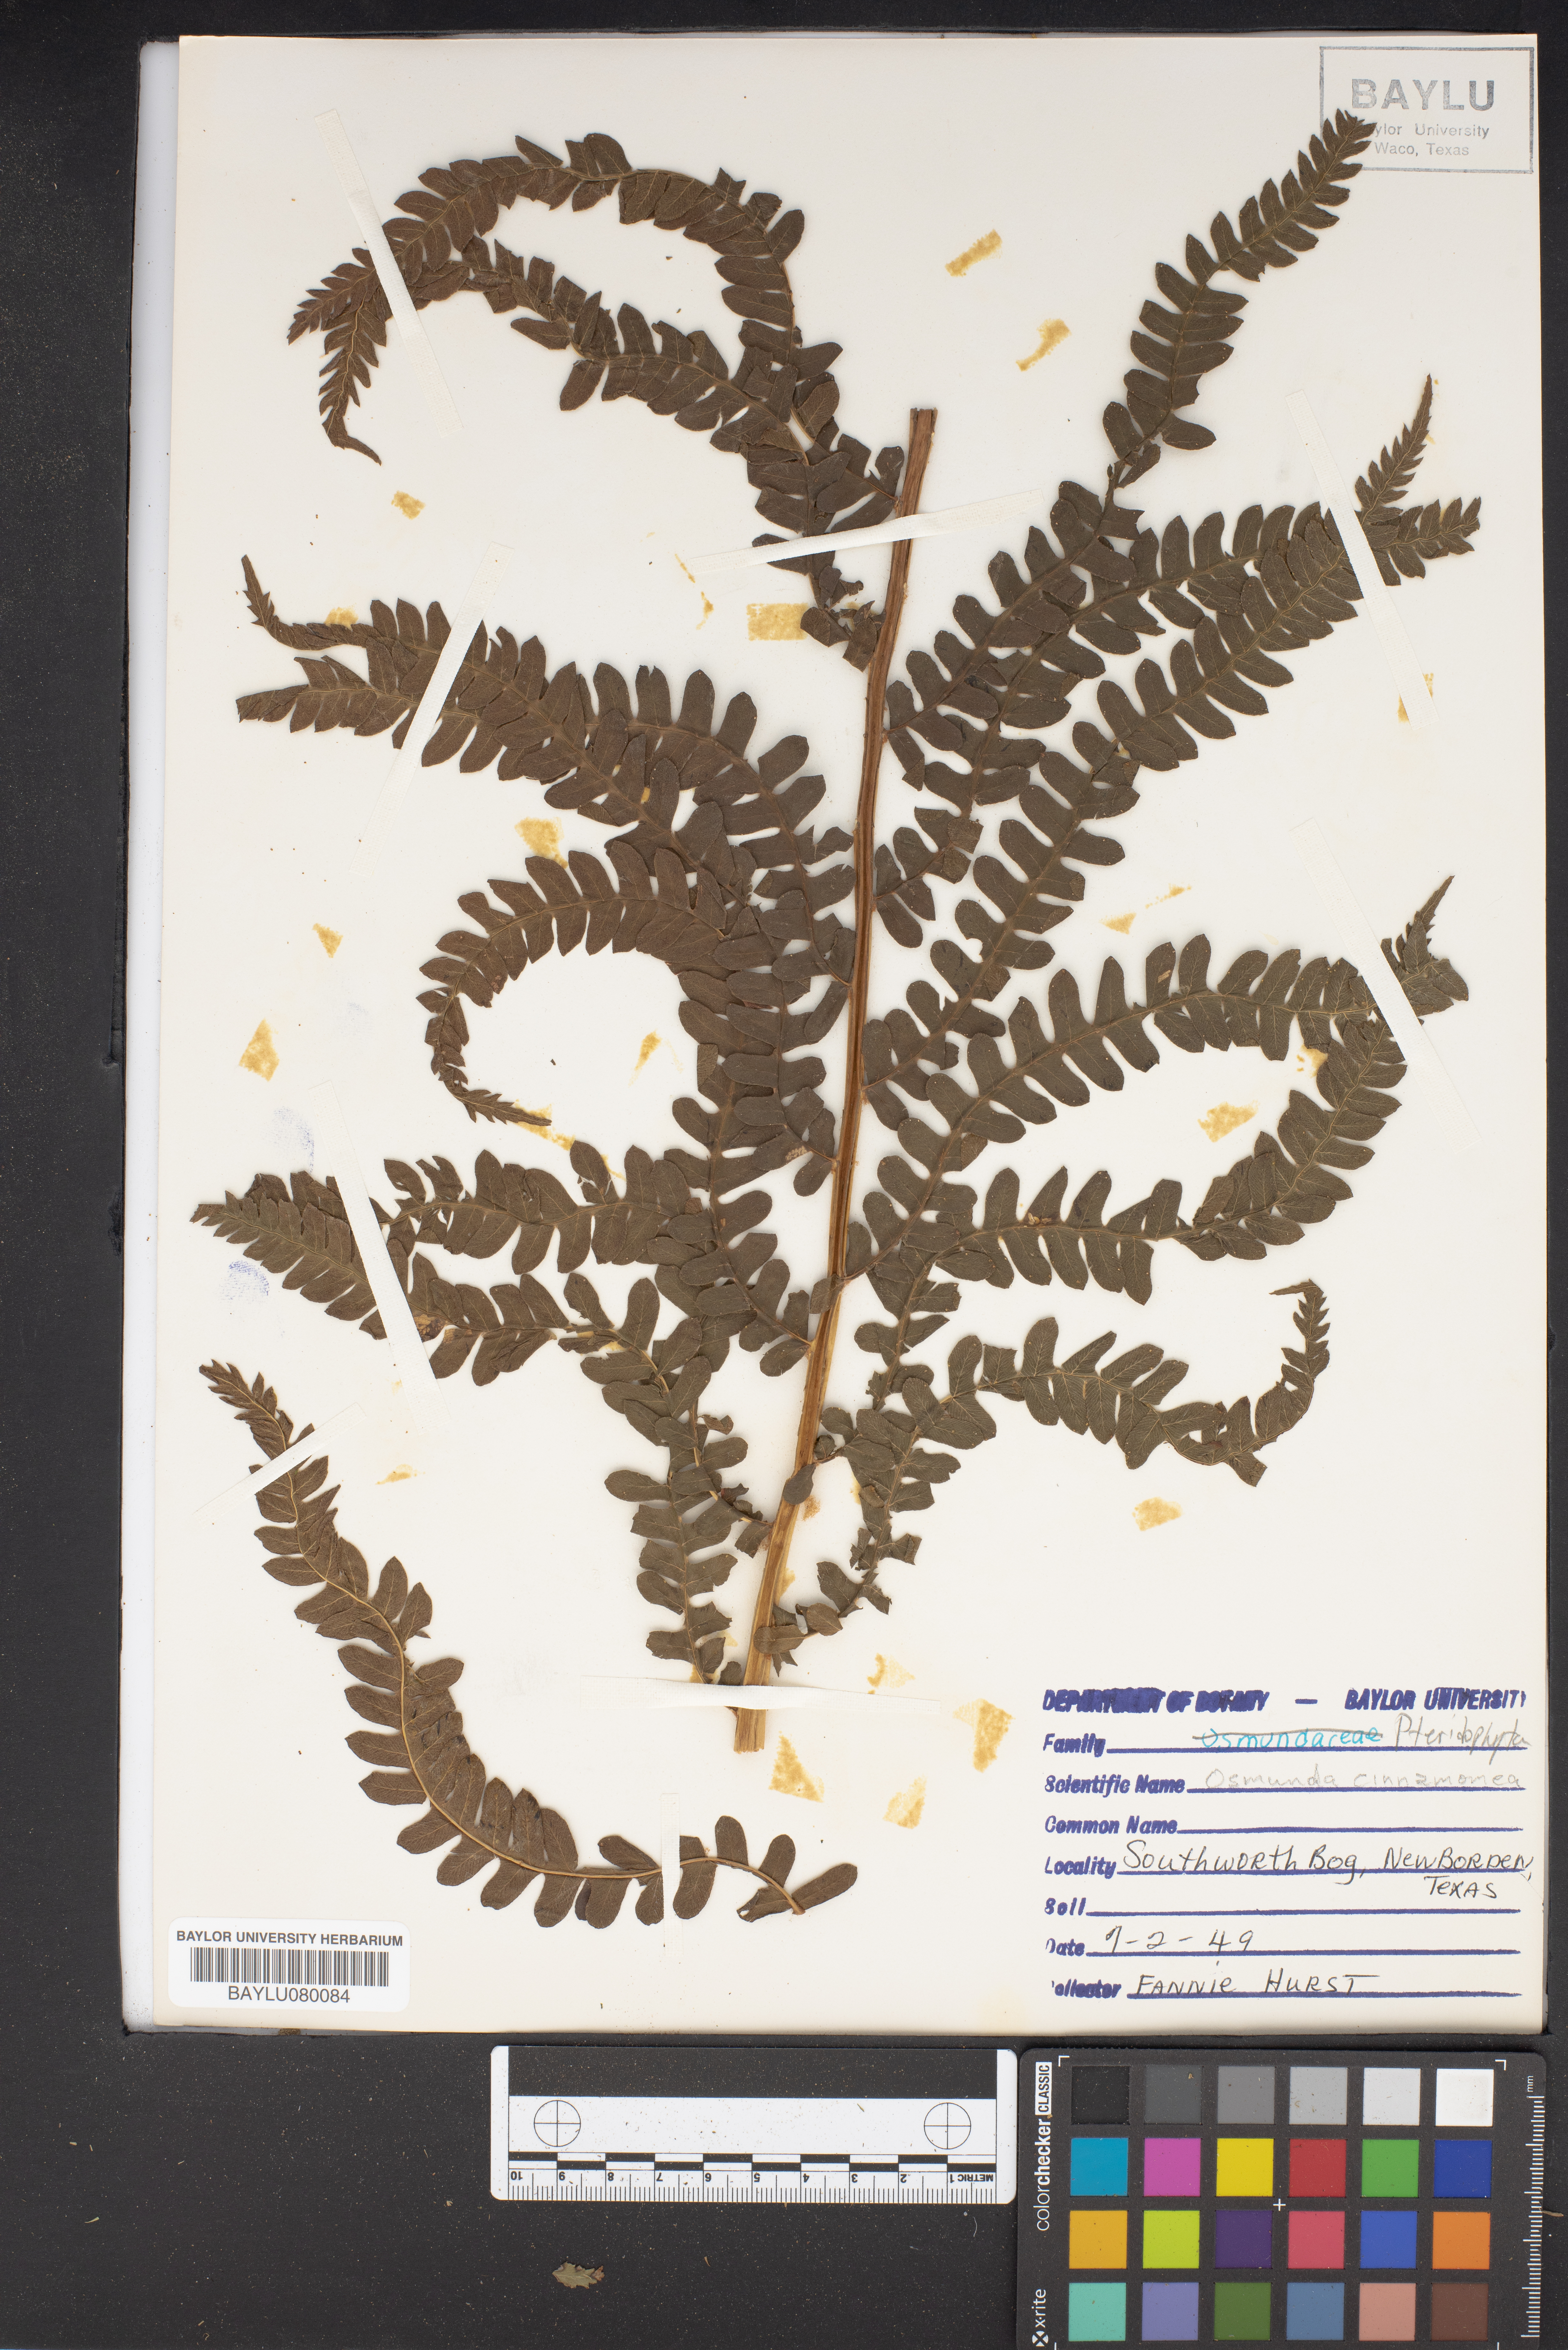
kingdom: Plantae
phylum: Tracheophyta
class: Polypodiopsida
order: Osmundales
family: Osmundaceae
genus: Osmundastrum
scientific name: Osmundastrum cinnamomeum
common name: Cinnamon fern
